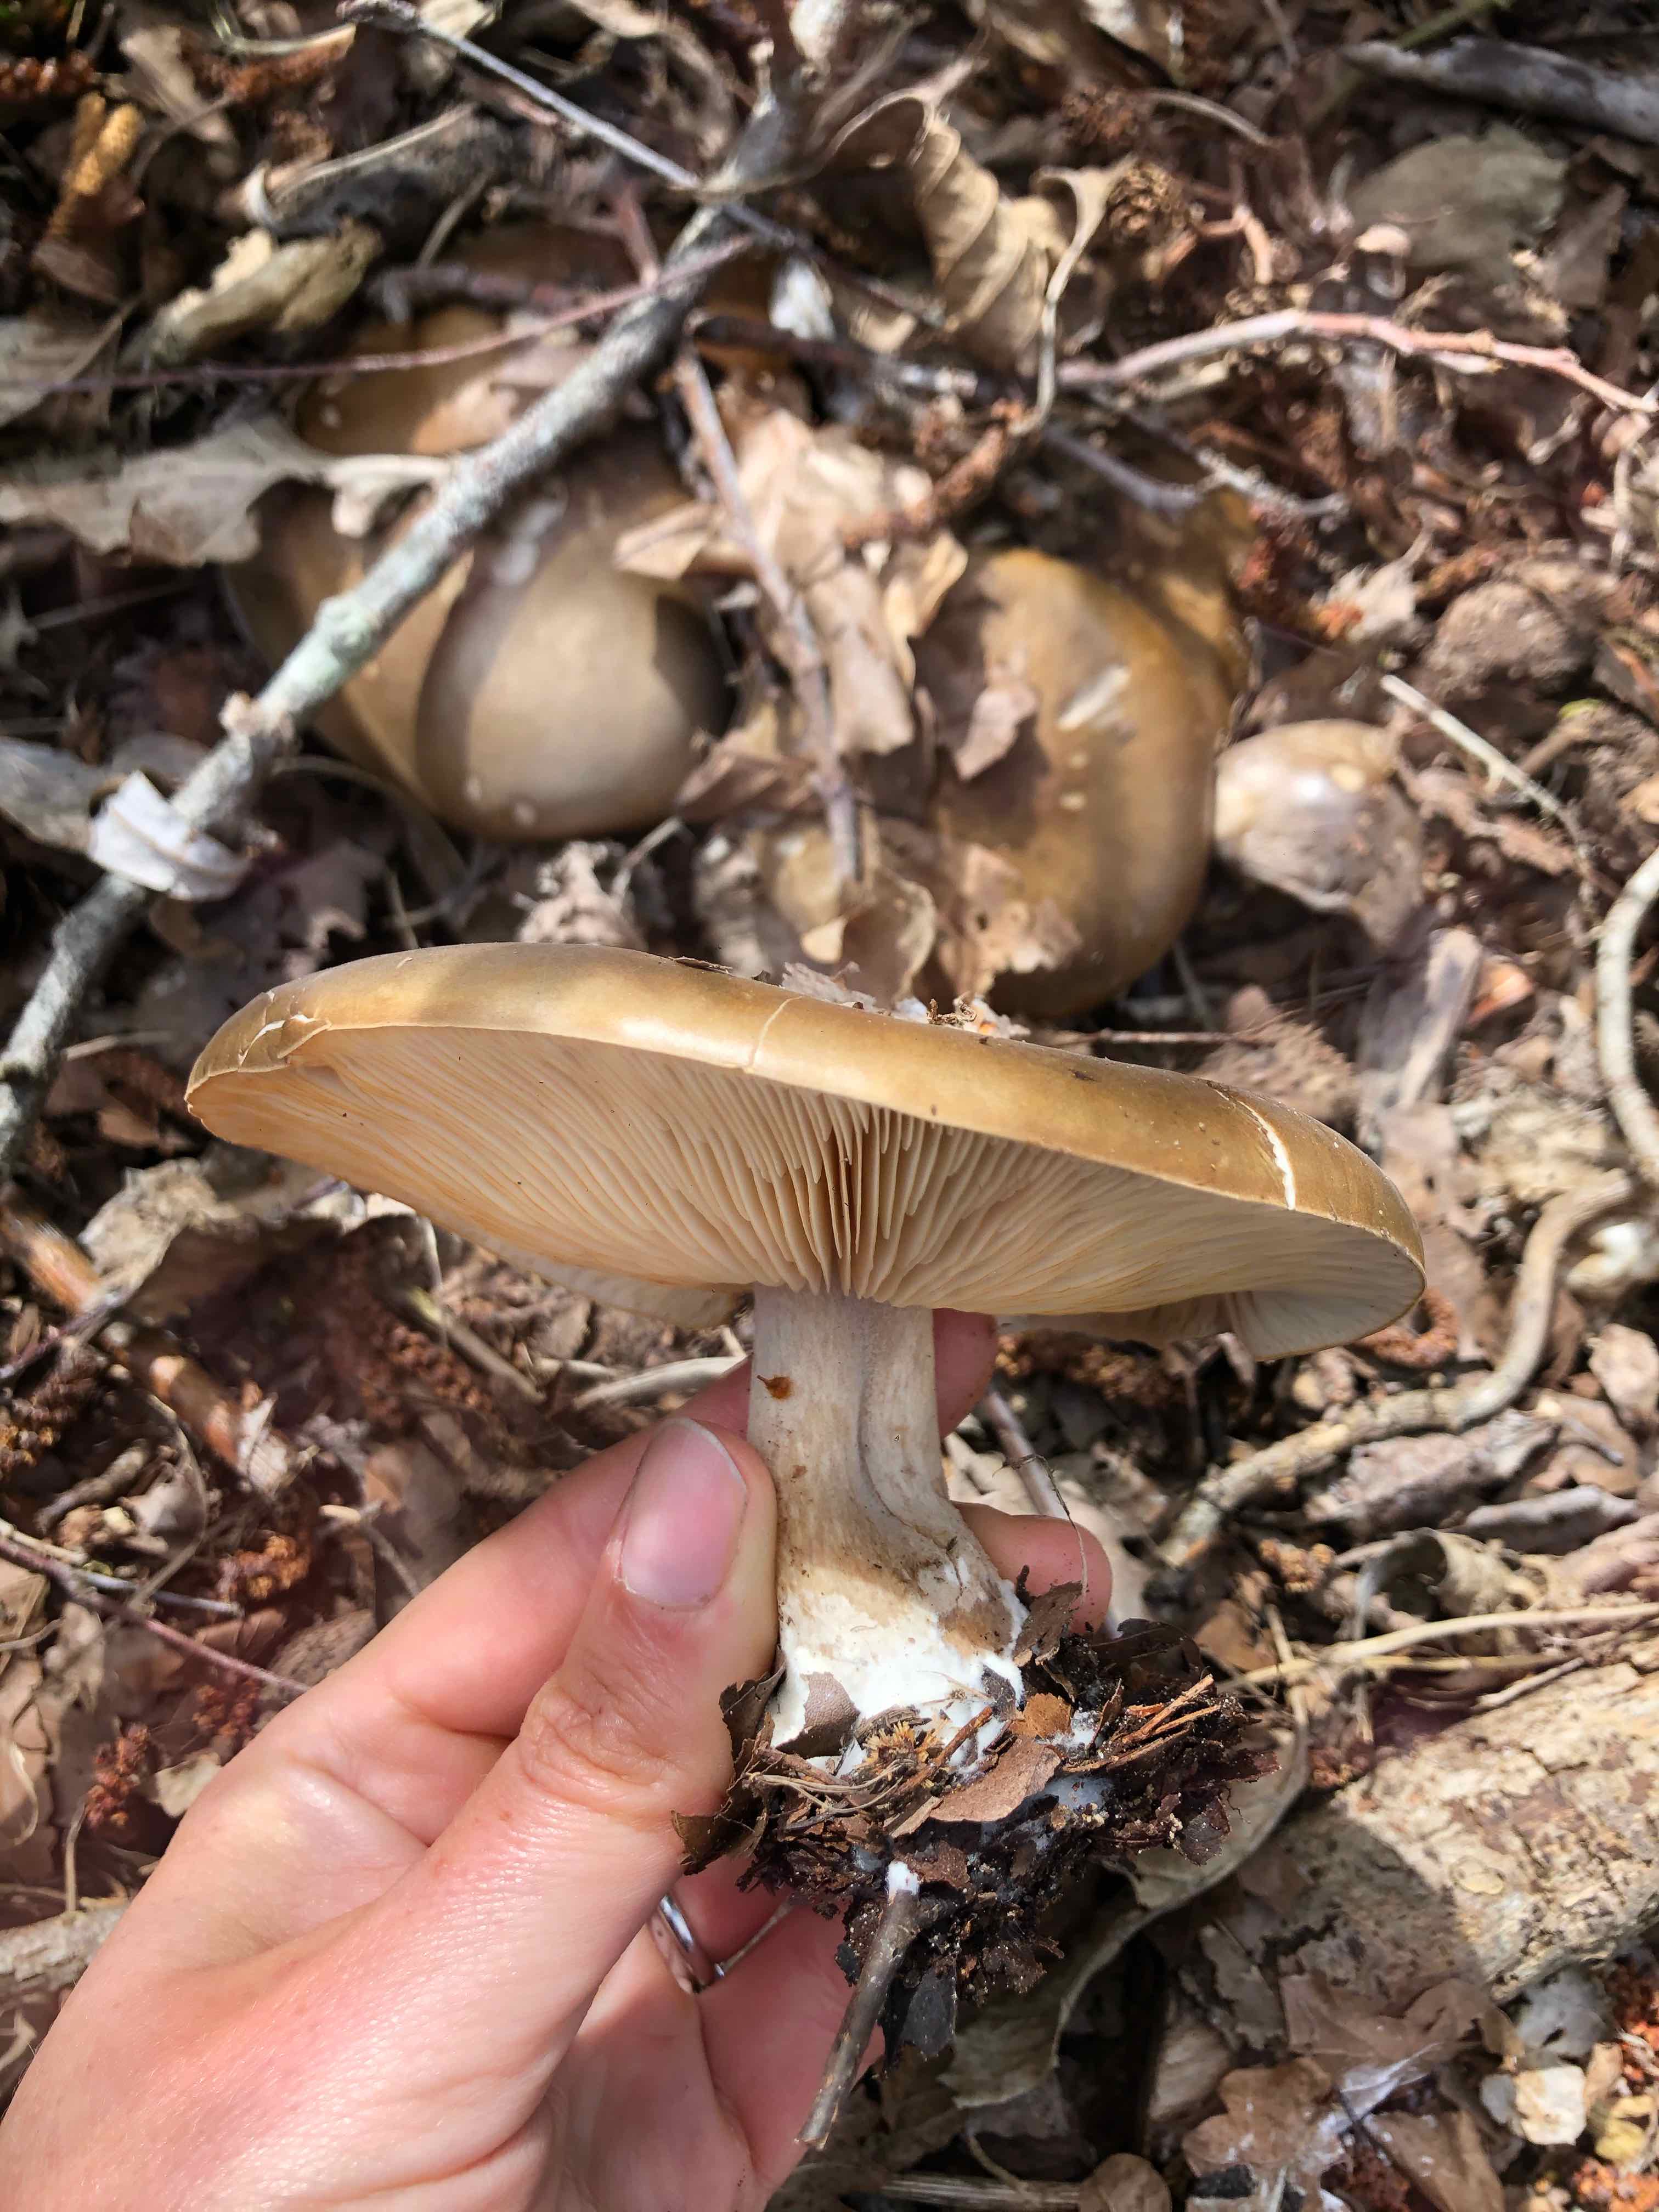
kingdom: Fungi
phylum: Basidiomycota
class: Agaricomycetes
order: Agaricales
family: Tricholomataceae
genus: Melanoleuca
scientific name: Melanoleuca cognata
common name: gyldengrå munkehat
